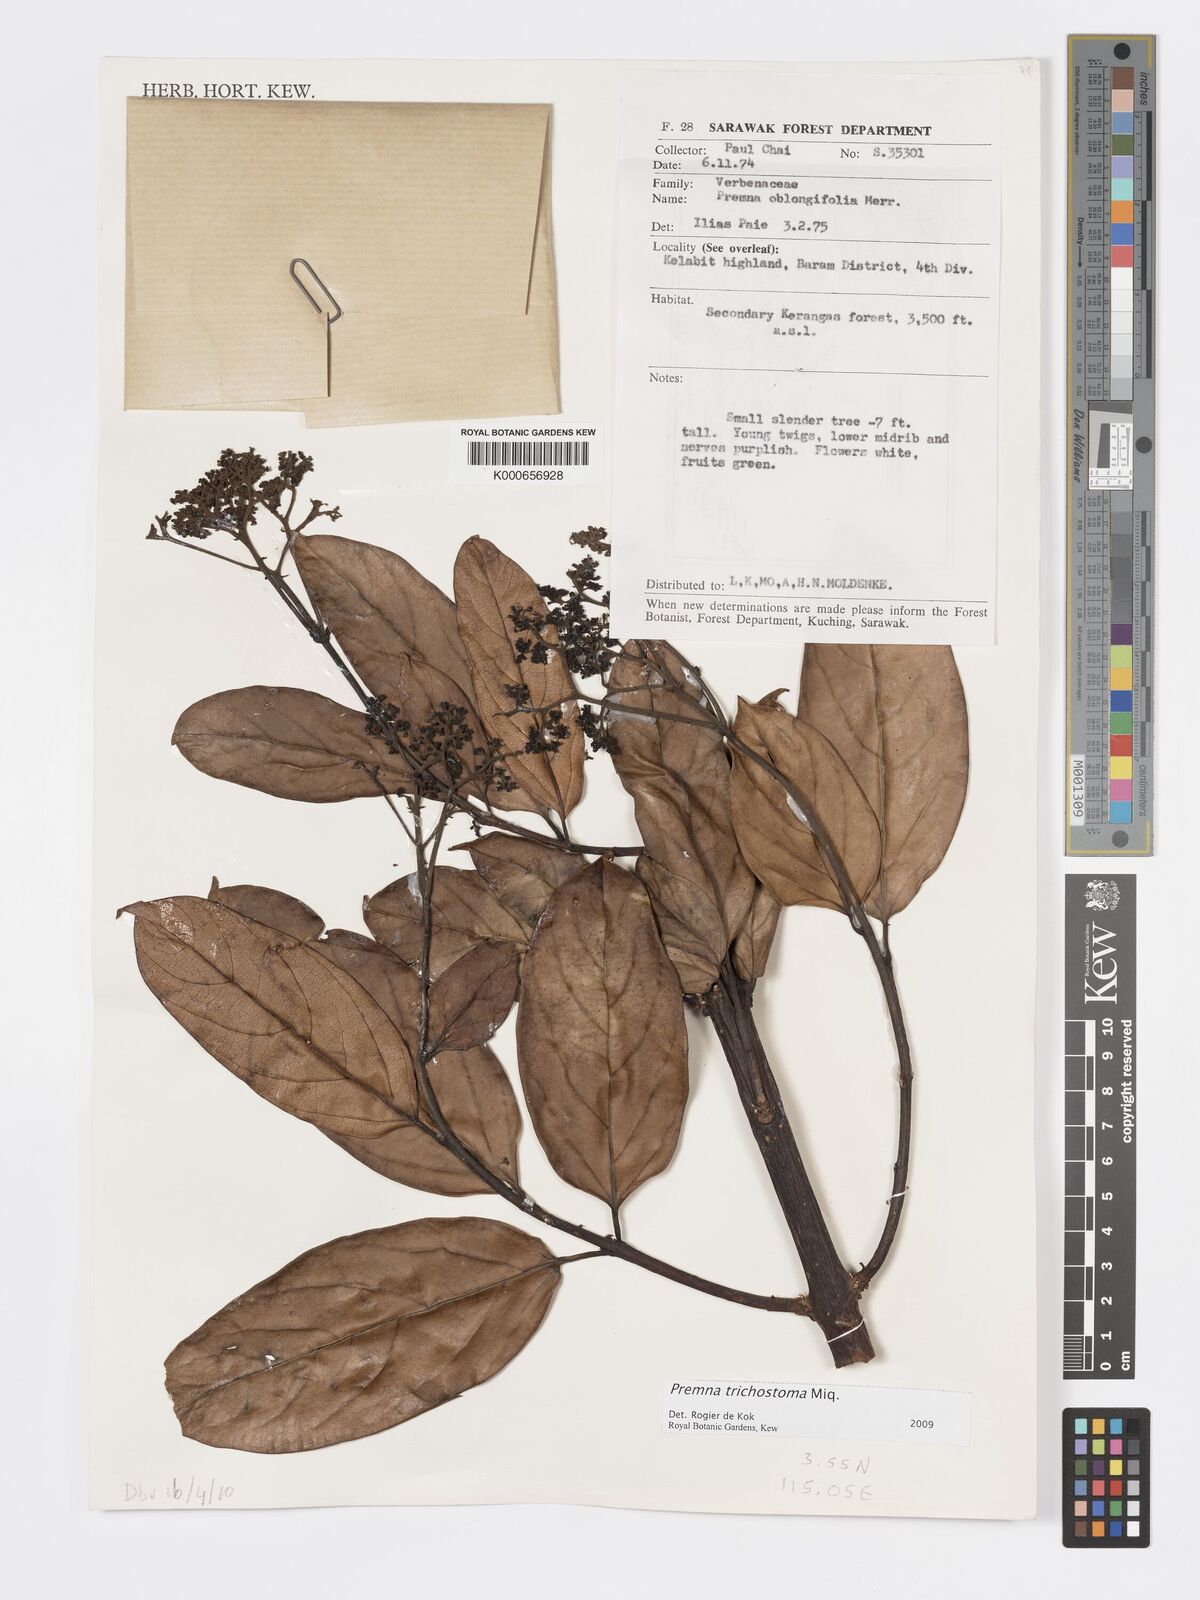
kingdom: Plantae
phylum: Tracheophyta
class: Magnoliopsida
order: Lamiales
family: Lamiaceae
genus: Premna
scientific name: Premna trichostoma
